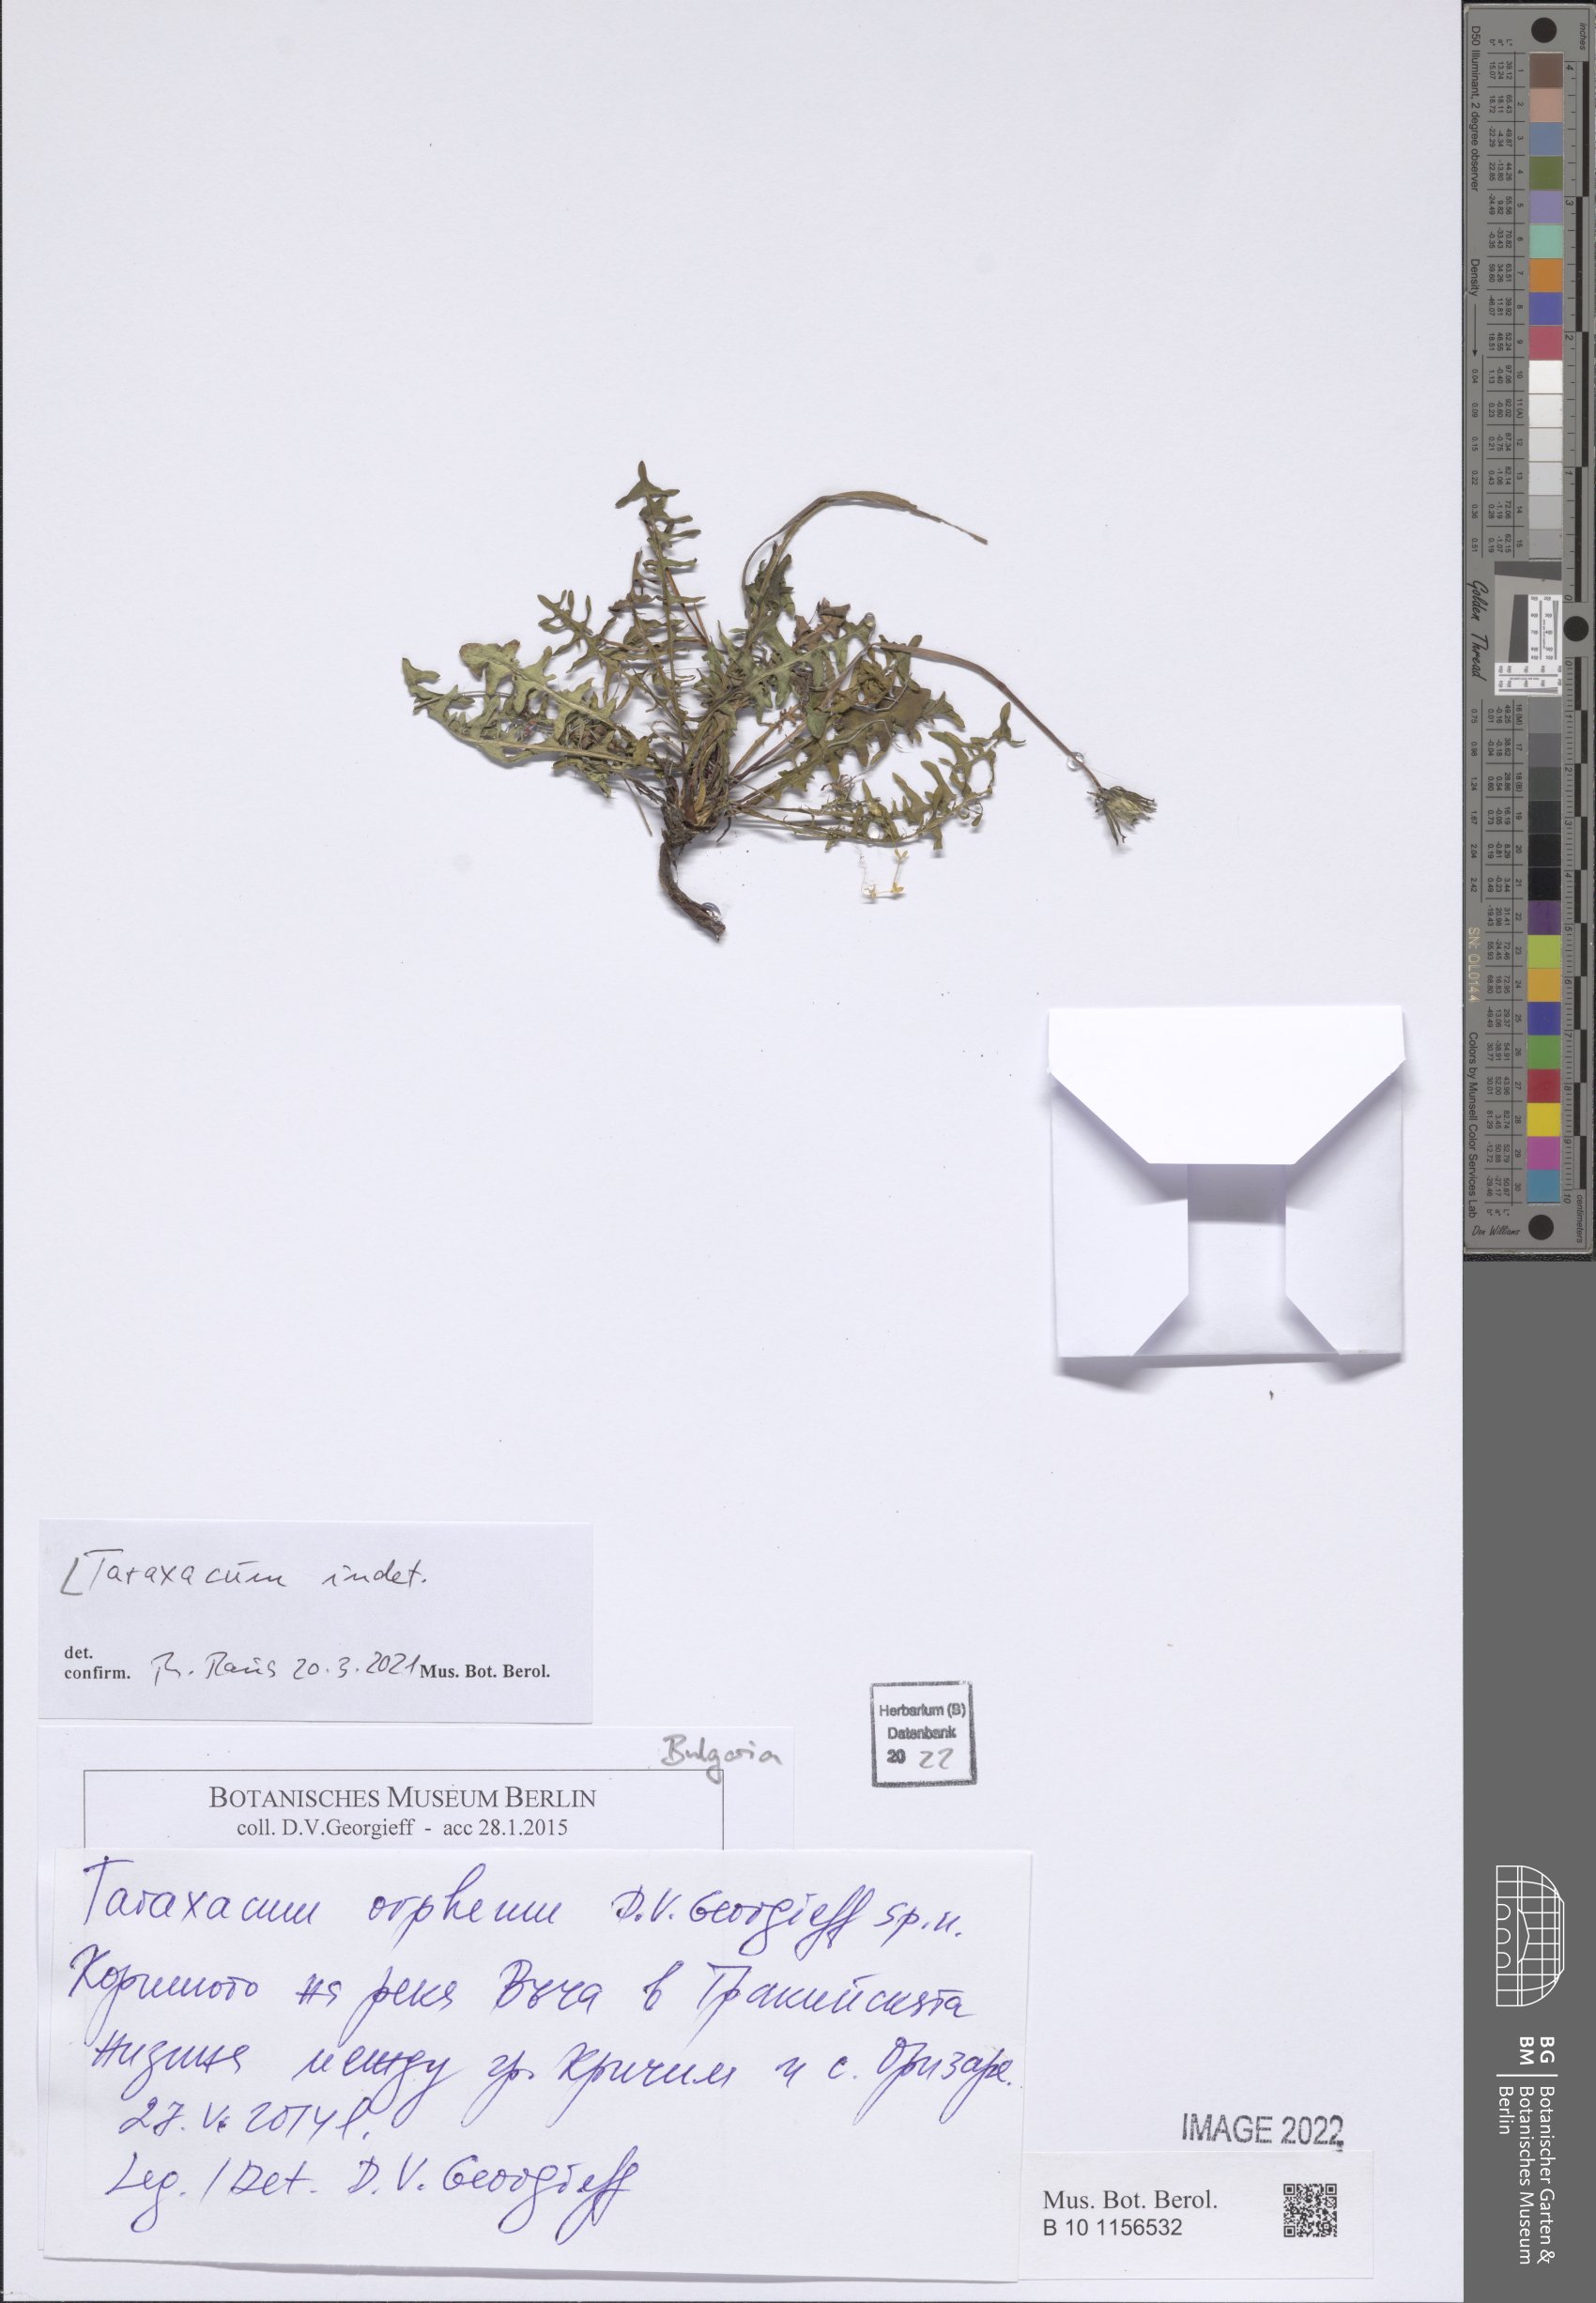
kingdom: Plantae
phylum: Tracheophyta
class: Magnoliopsida
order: Asterales
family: Asteraceae
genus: Taraxacum
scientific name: Taraxacum
